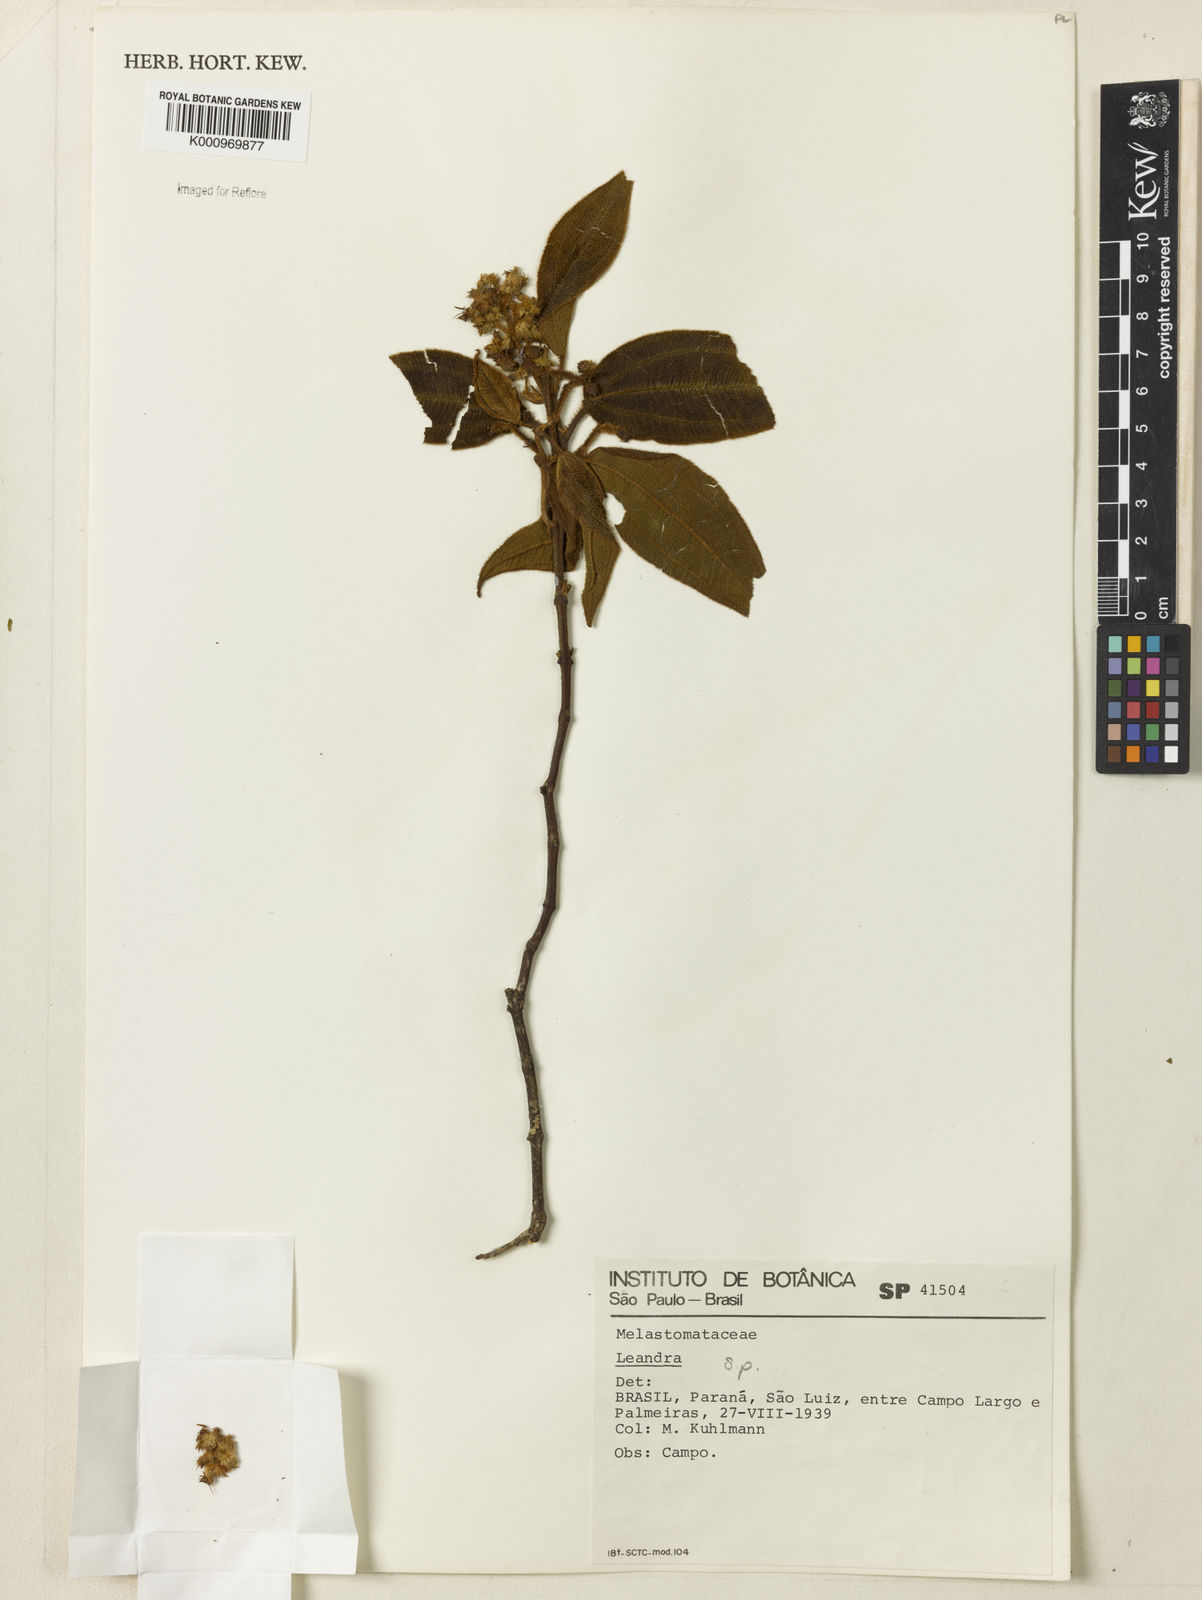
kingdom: Plantae
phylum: Tracheophyta
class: Magnoliopsida
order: Myrtales
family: Melastomataceae
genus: Miconia
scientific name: Miconia
